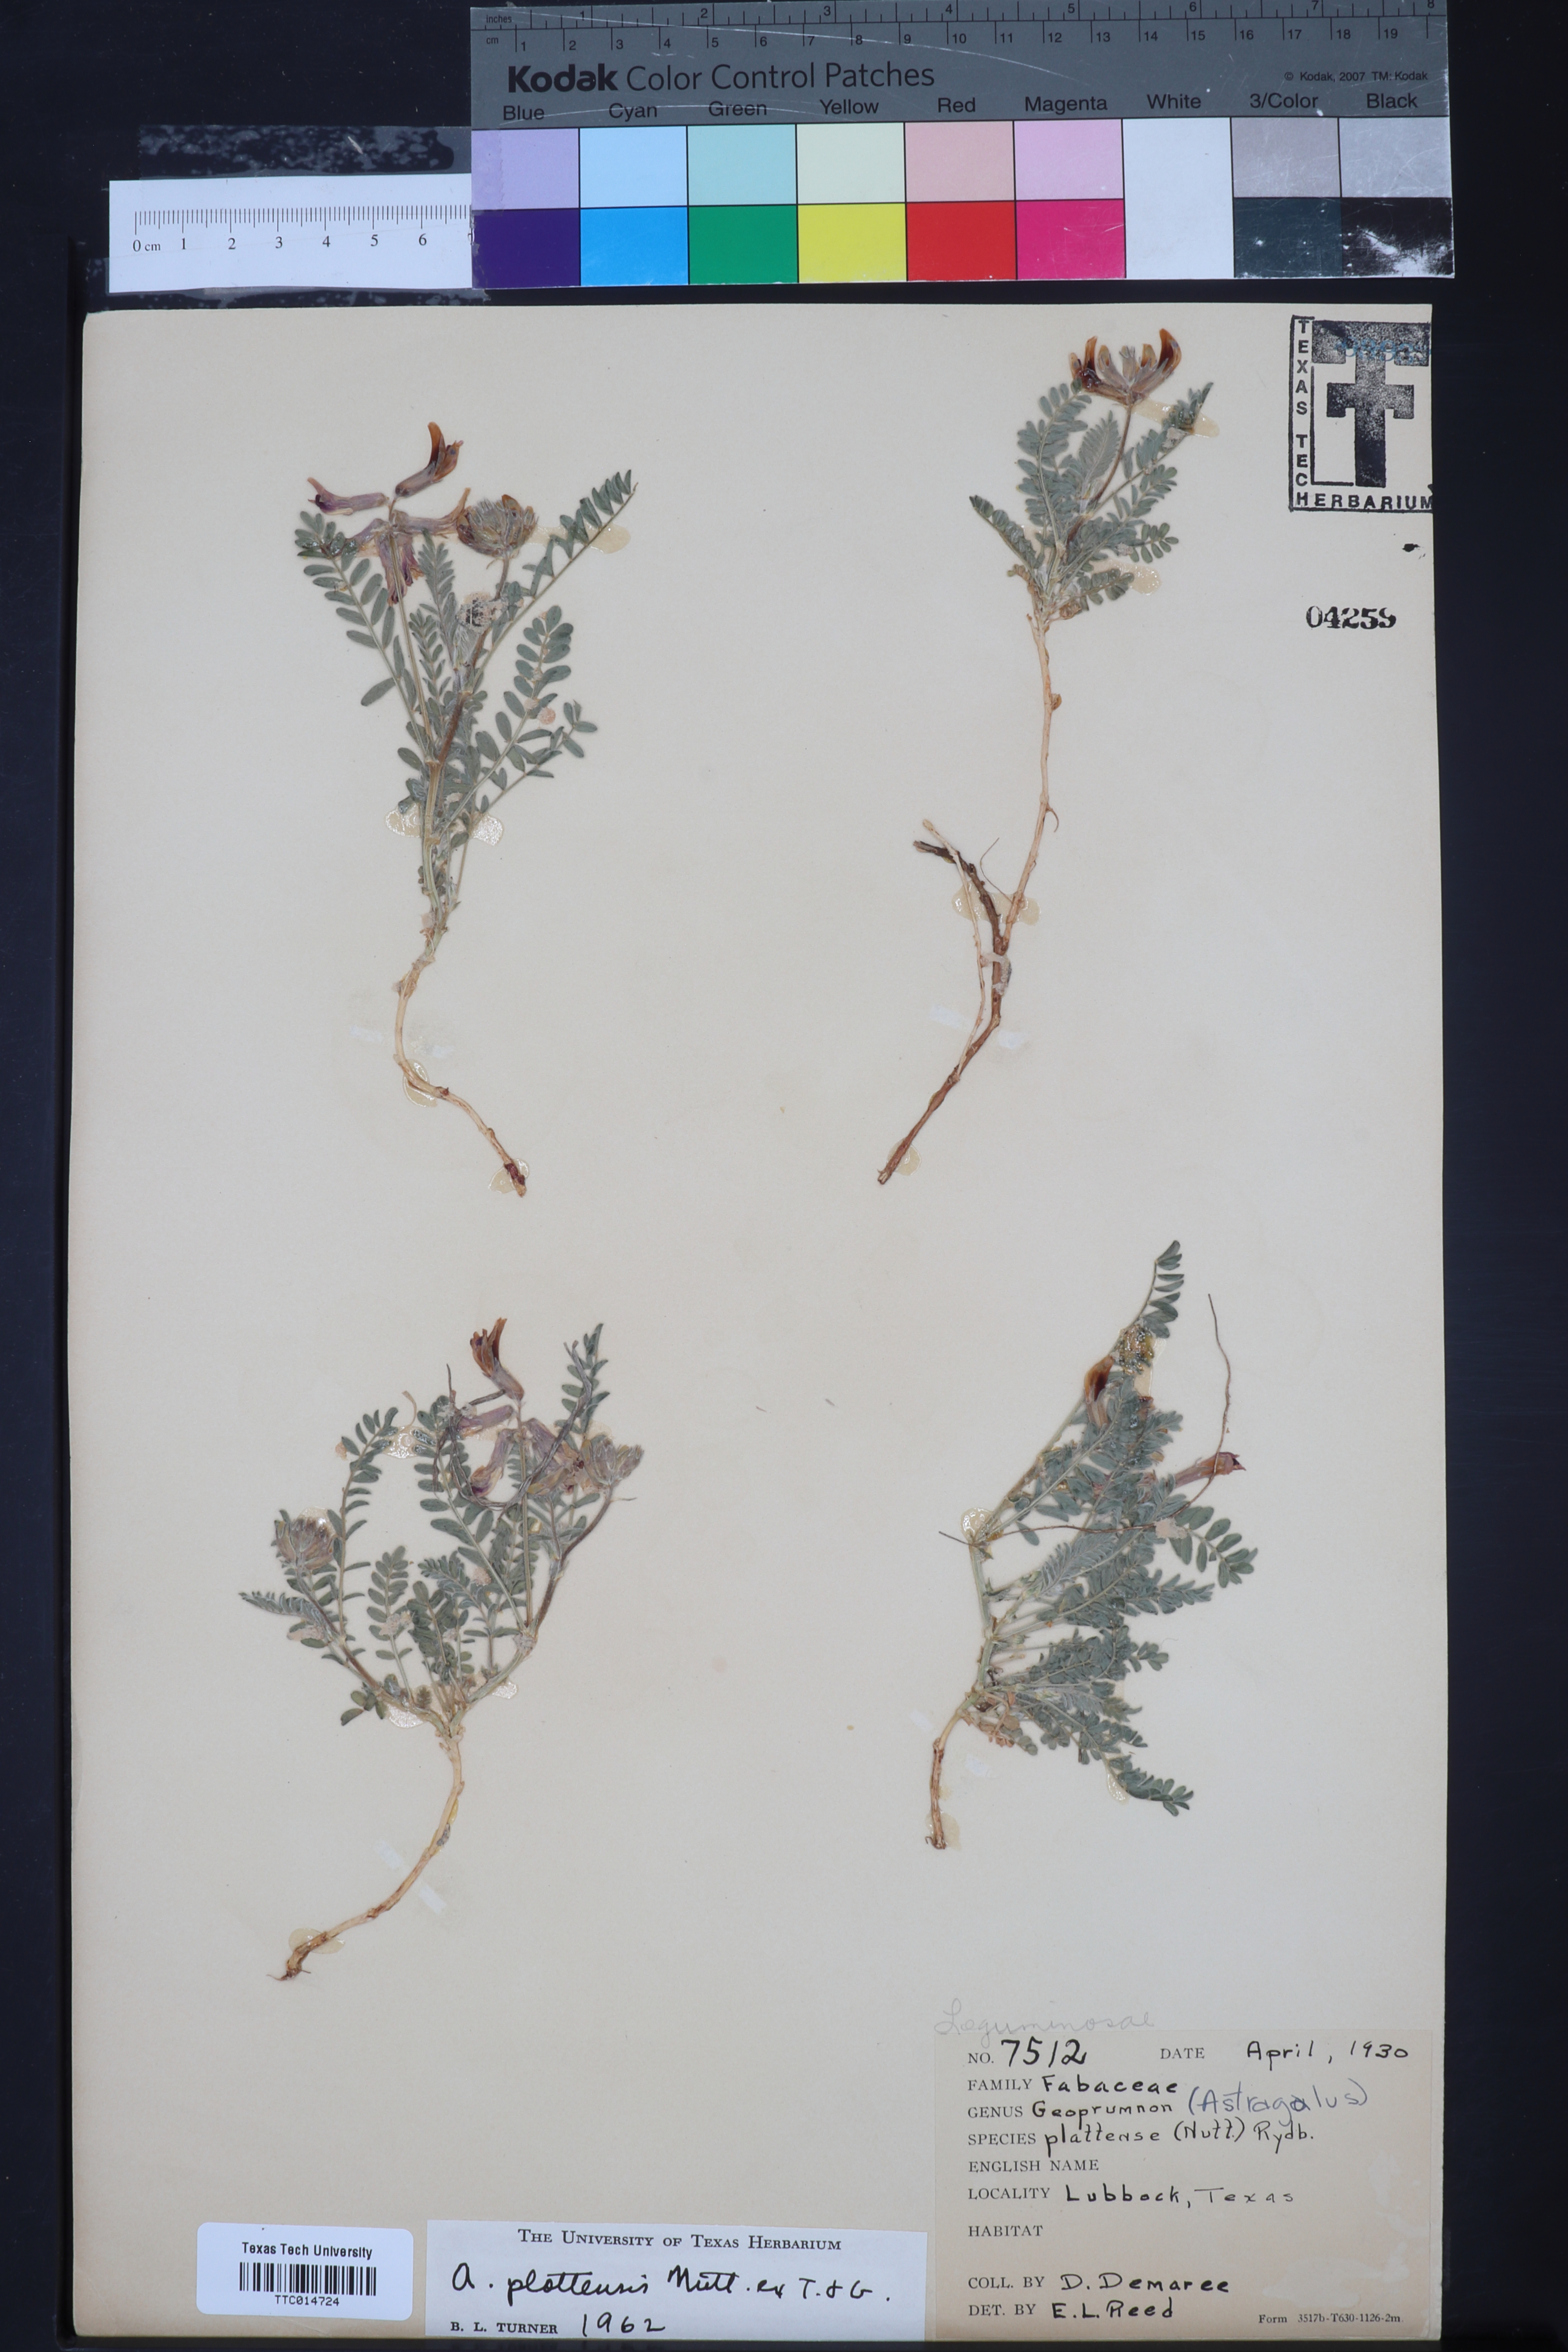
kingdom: Plantae
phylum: Tracheophyta
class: Magnoliopsida
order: Fabales
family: Fabaceae
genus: Astragalus
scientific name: Astragalus plattensis
